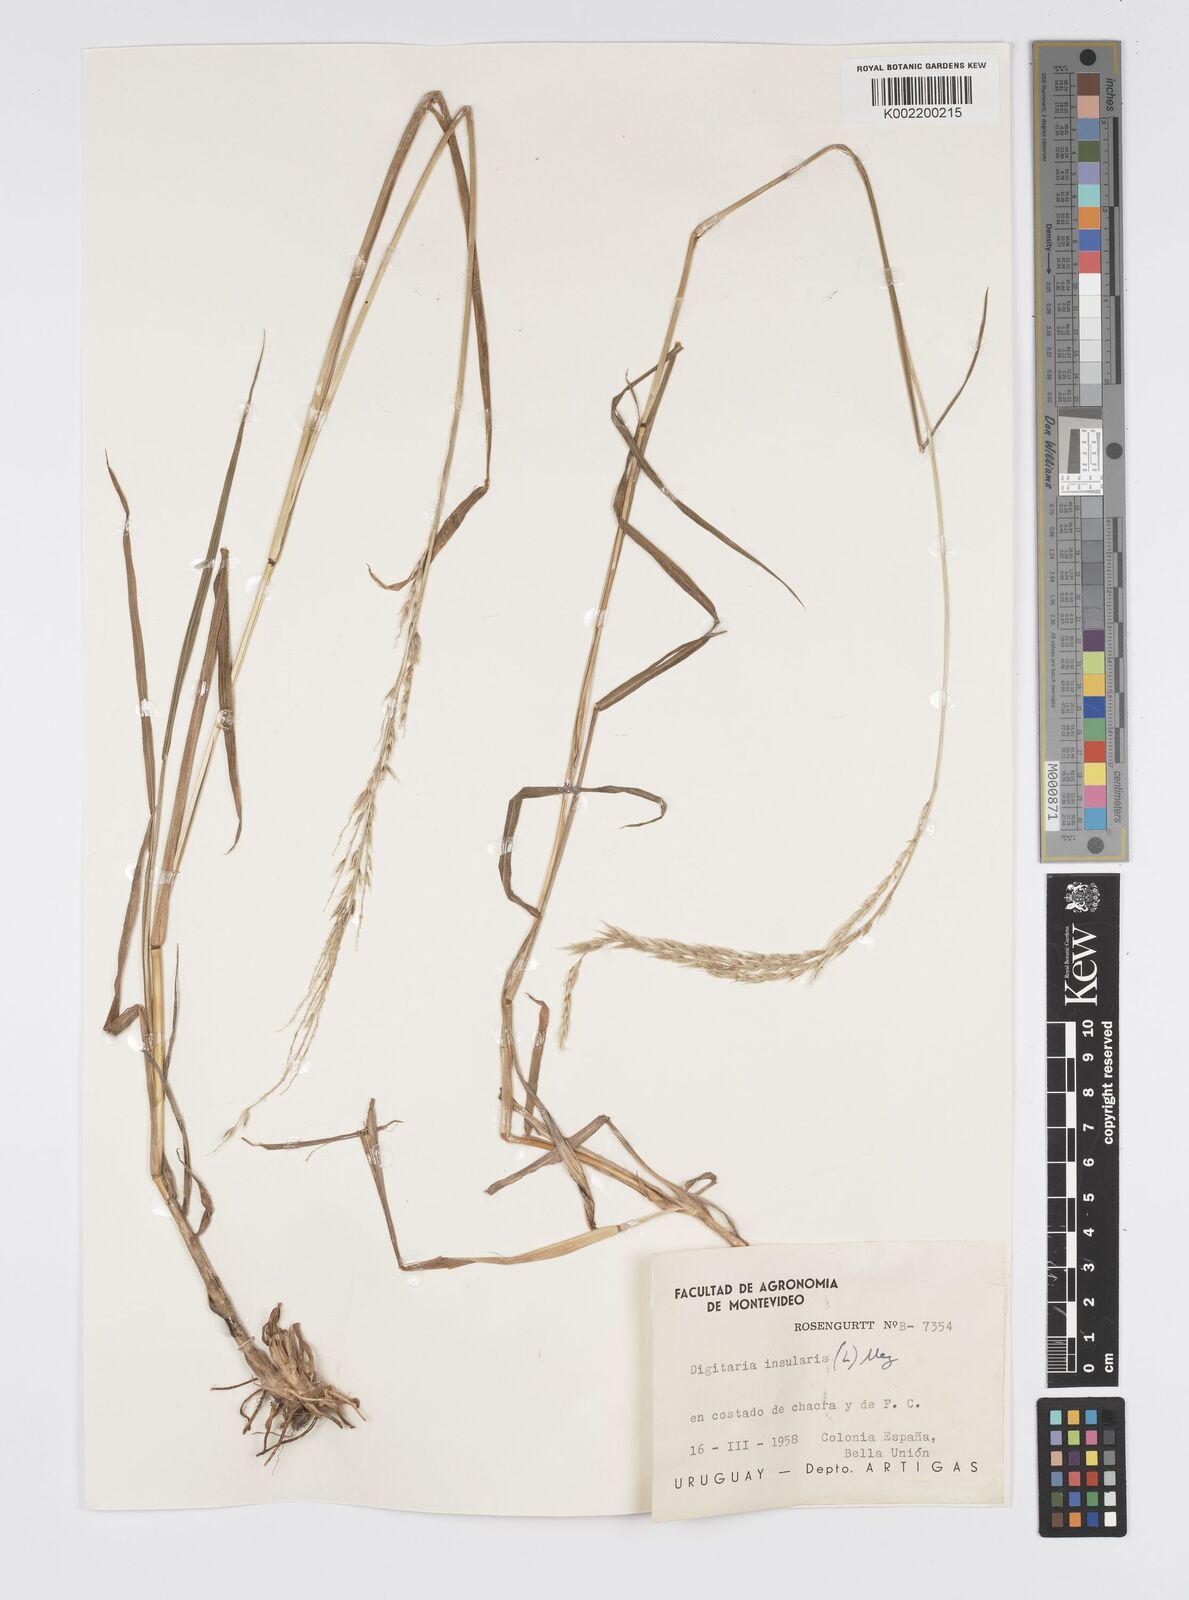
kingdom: Plantae
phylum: Tracheophyta
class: Liliopsida
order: Poales
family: Poaceae
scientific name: Poaceae
